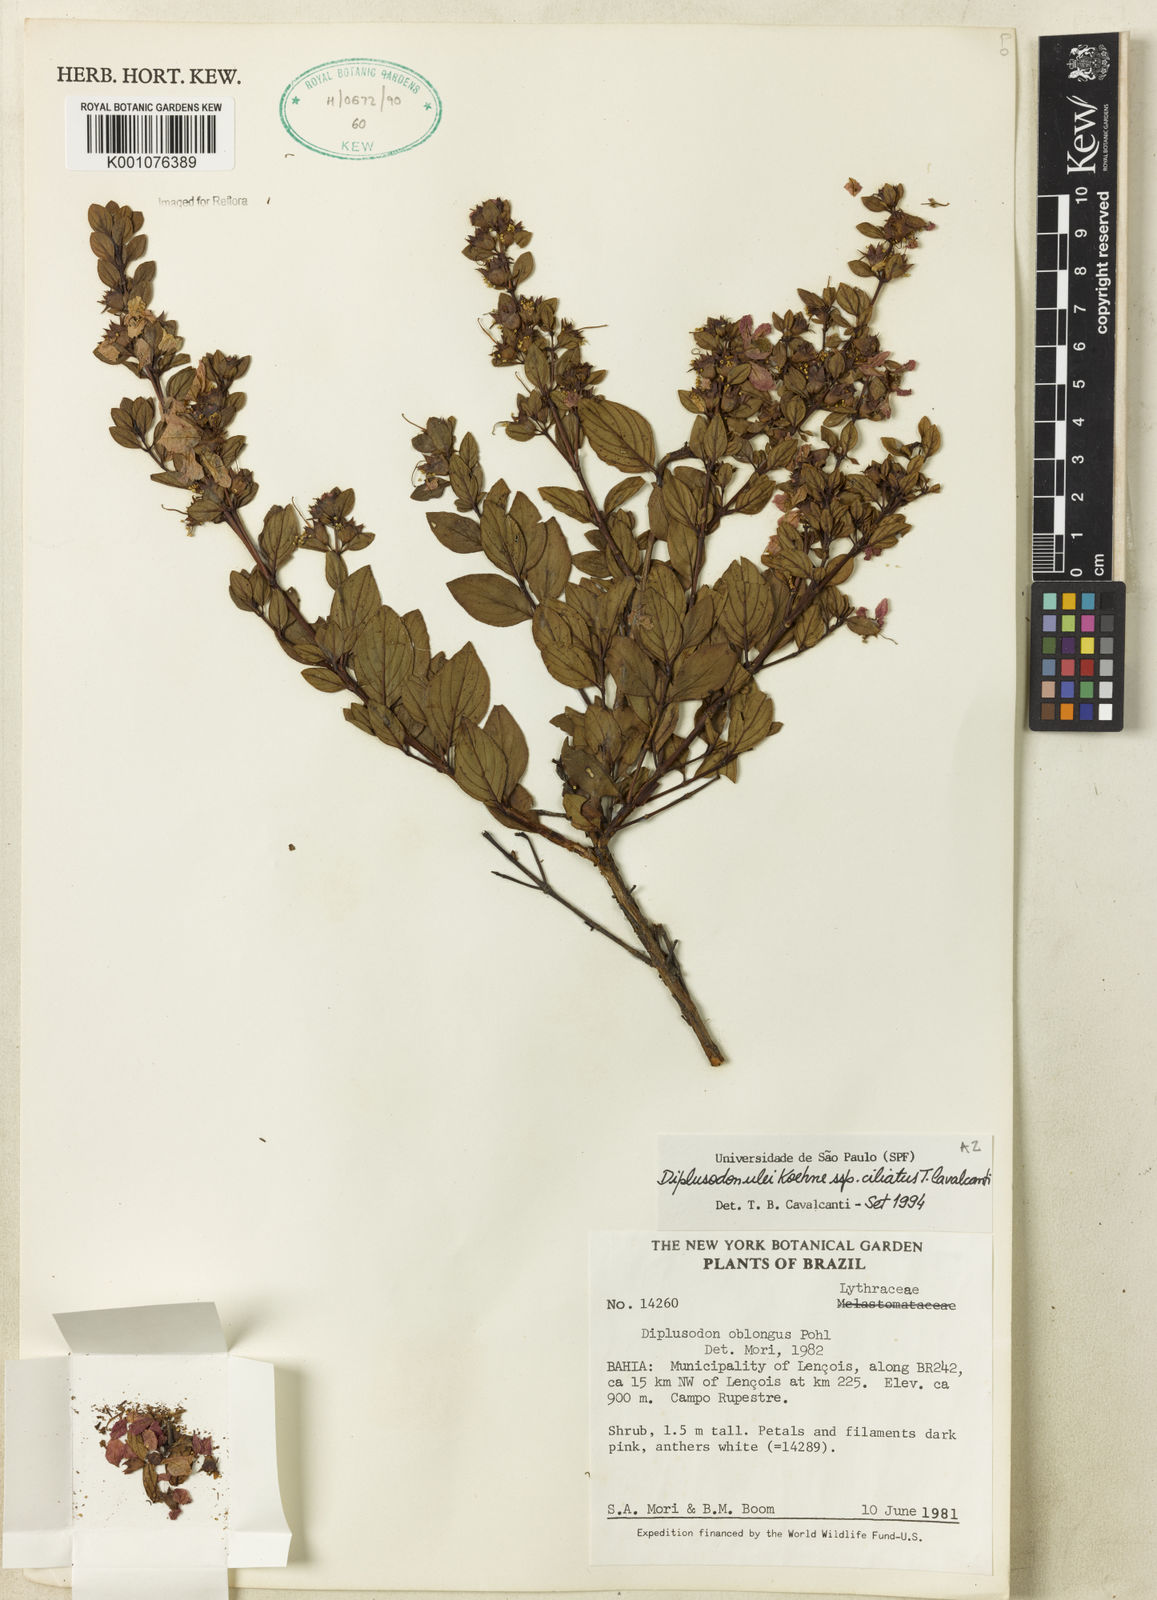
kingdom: Plantae
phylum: Tracheophyta
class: Magnoliopsida
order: Myrtales
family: Lythraceae
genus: Diplusodon
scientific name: Diplusodon ulei
